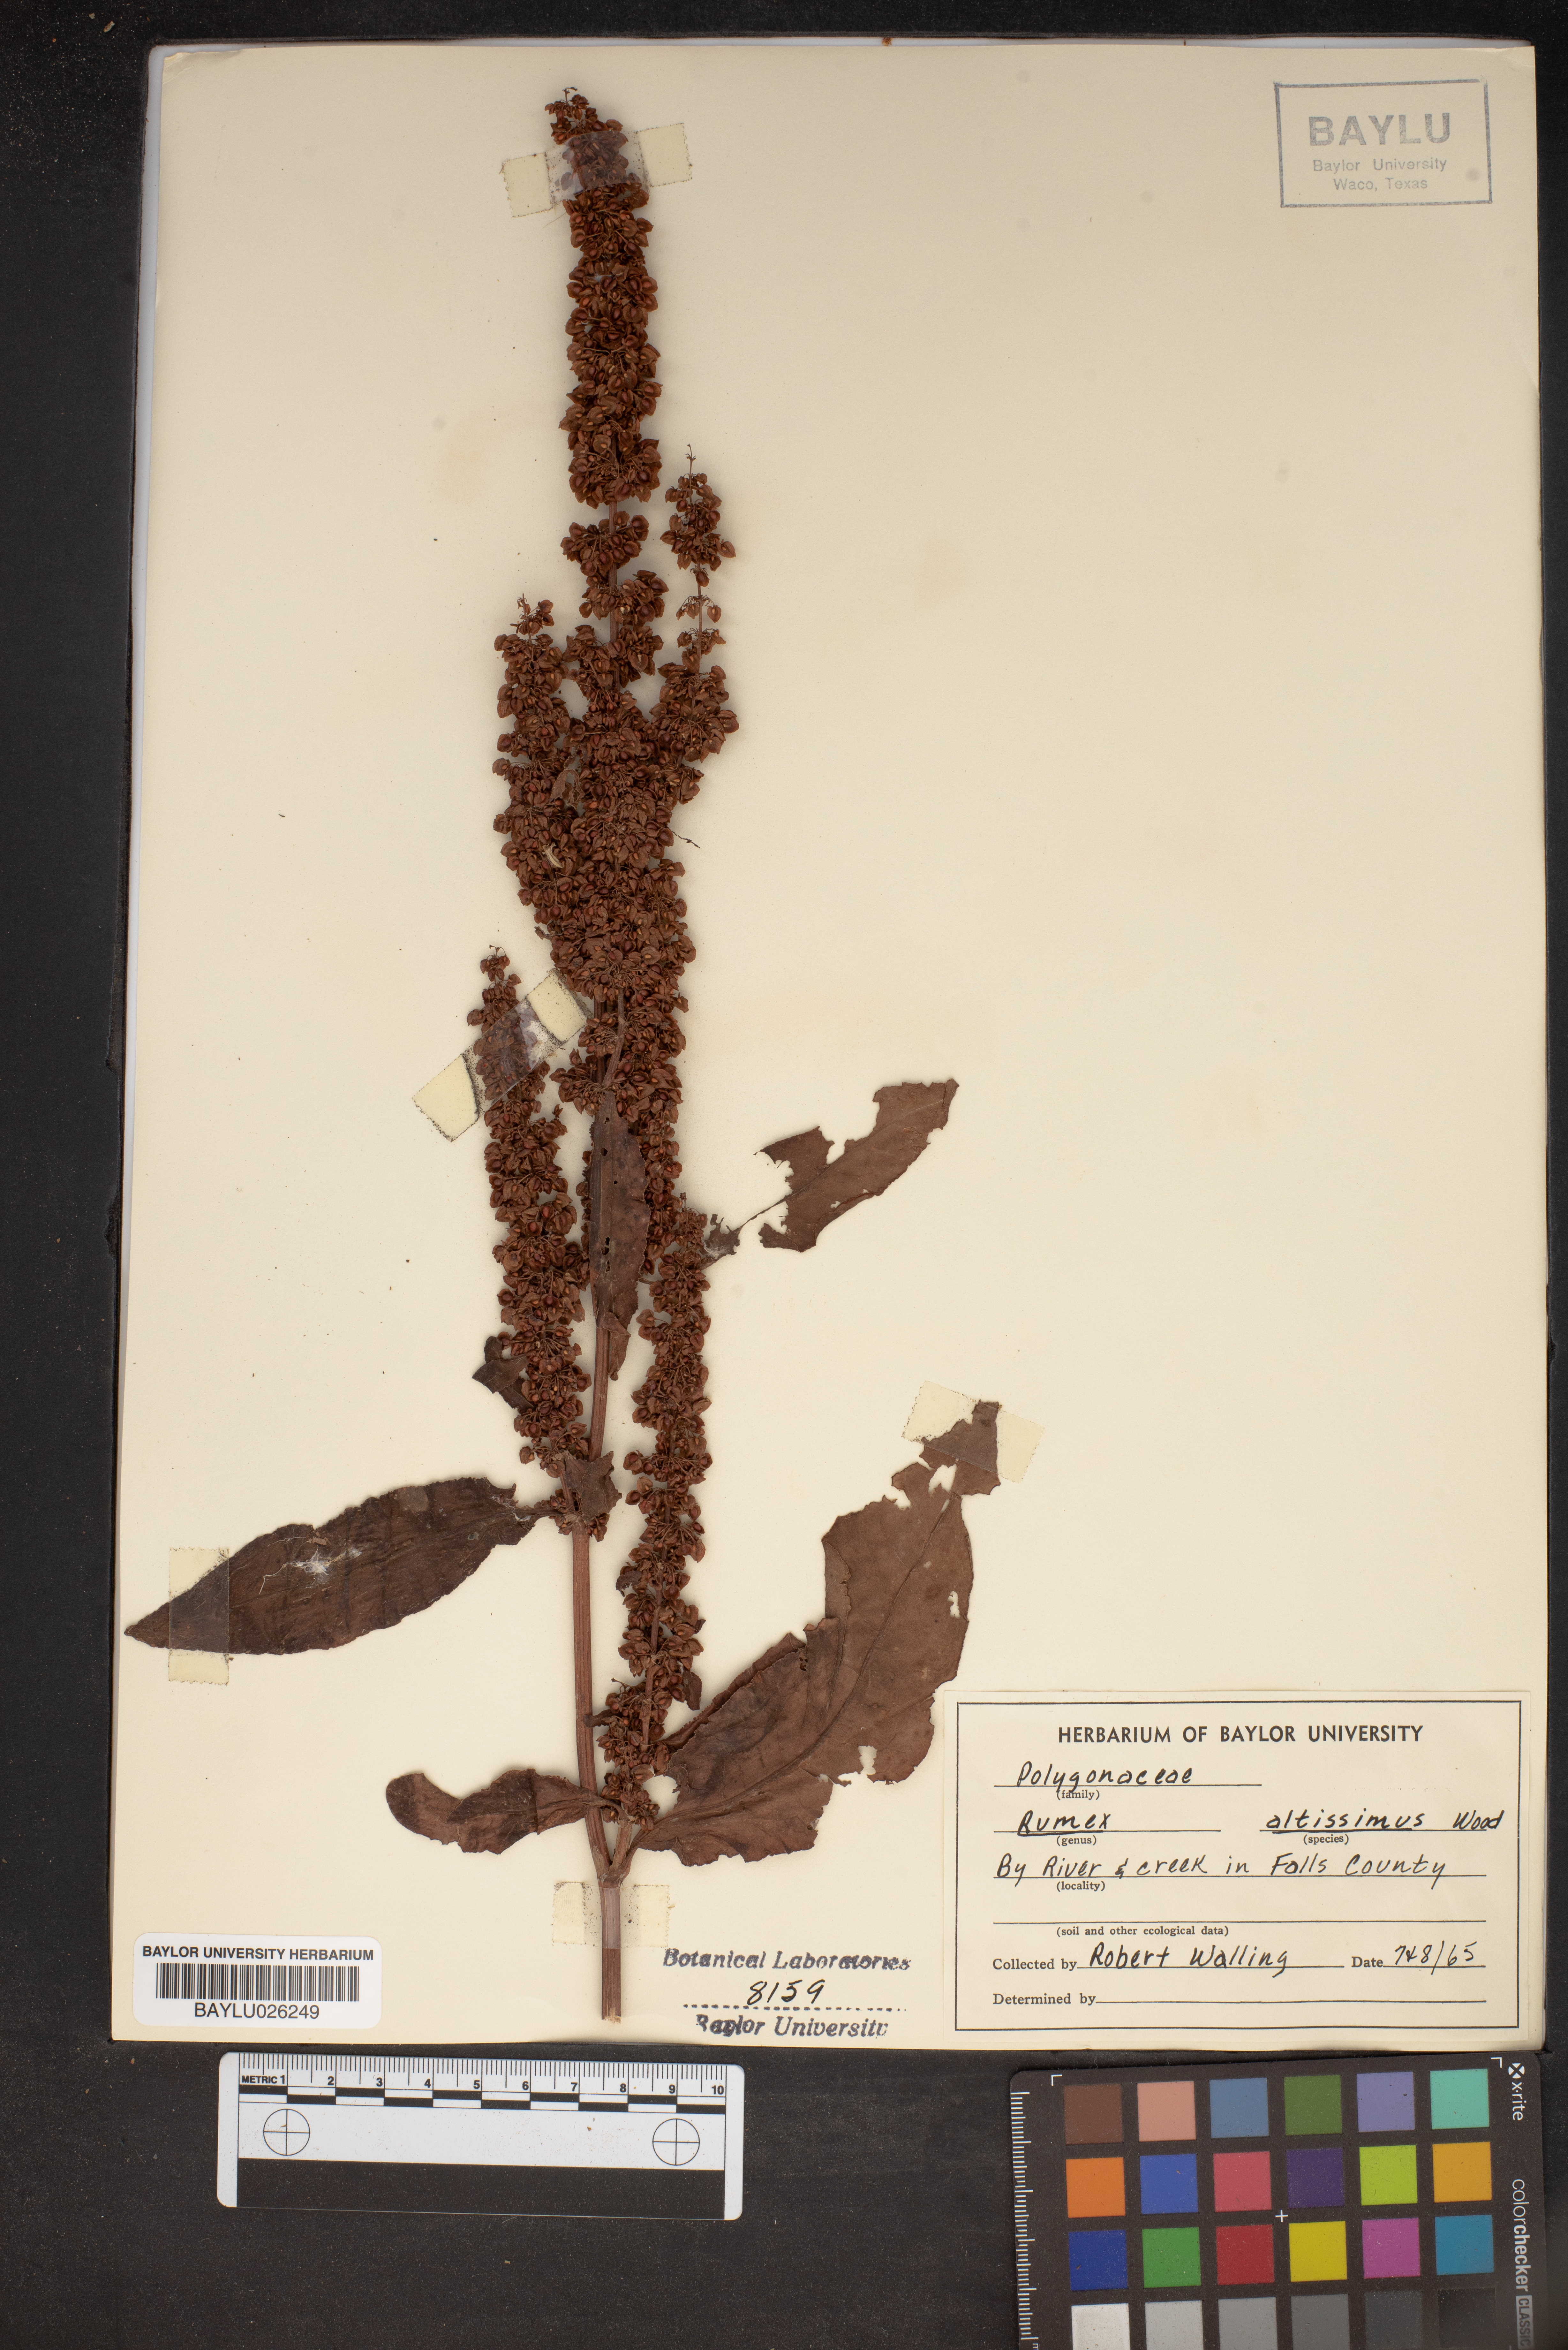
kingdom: Plantae
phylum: Tracheophyta
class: Magnoliopsida
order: Caryophyllales
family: Polygonaceae
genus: Rumex
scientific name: Rumex altissimus
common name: Smooth dock
